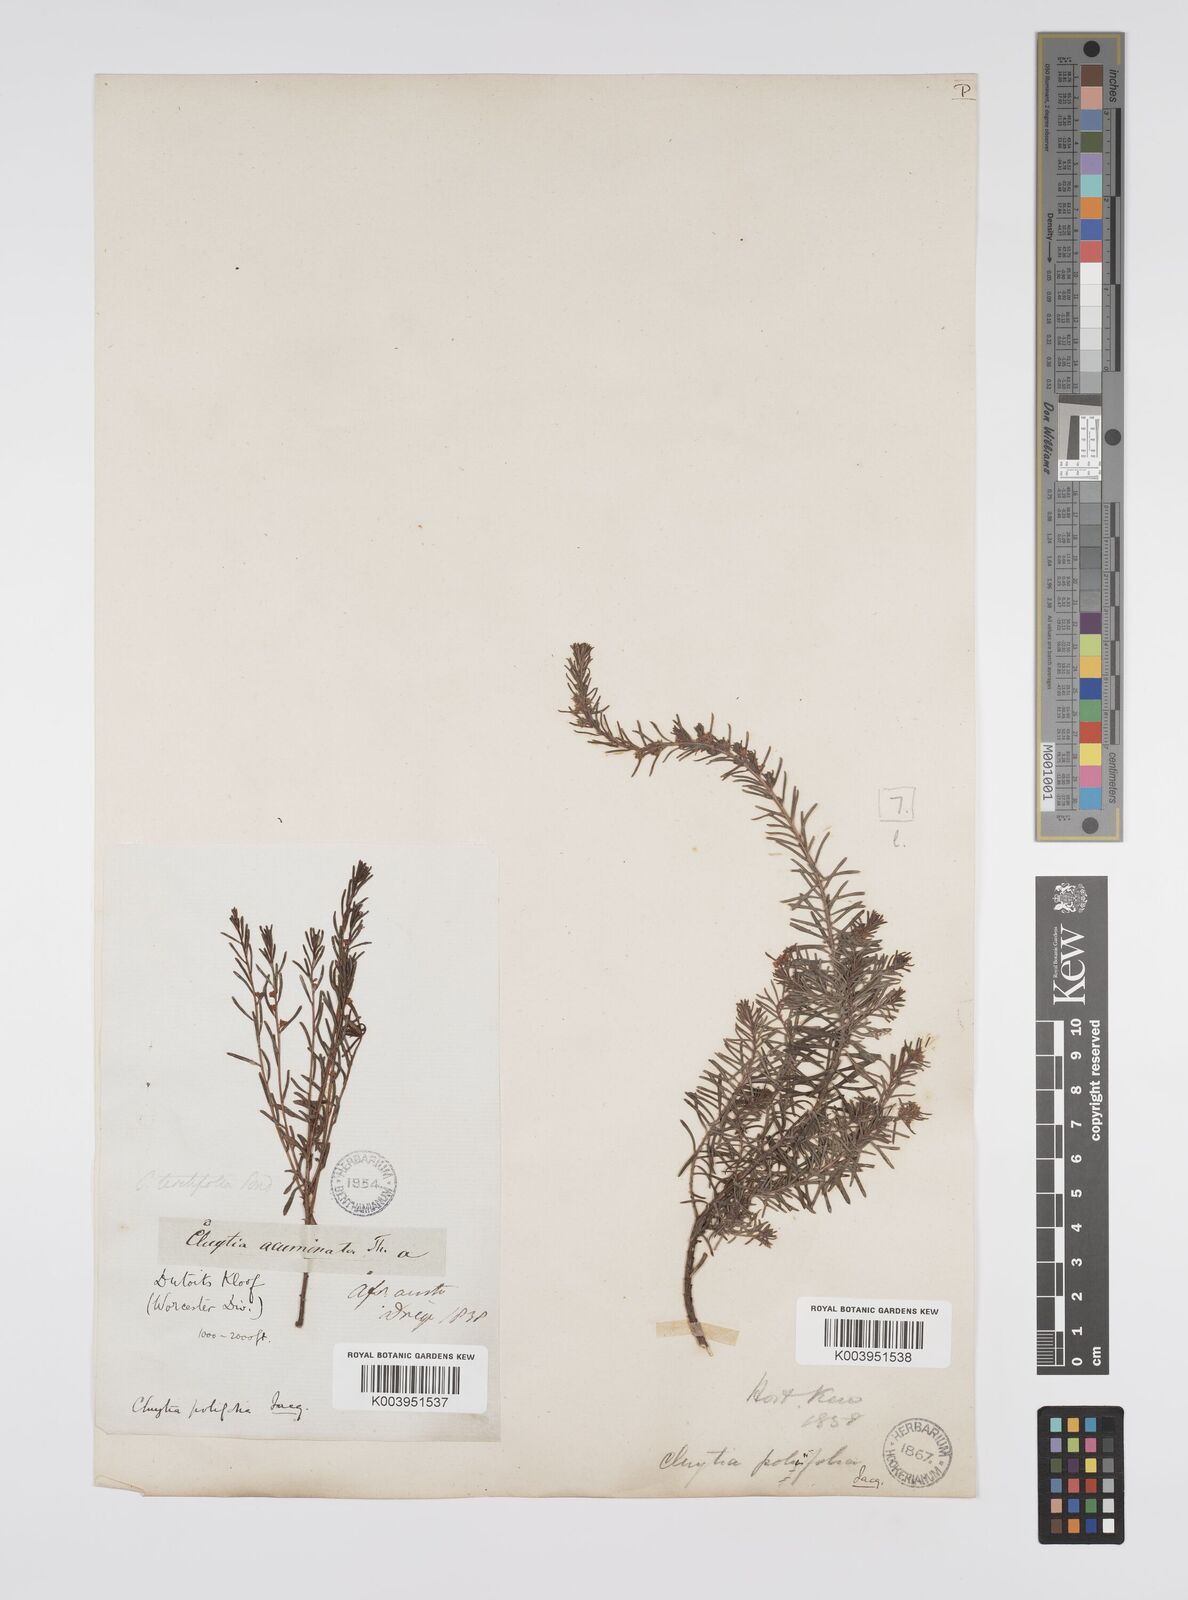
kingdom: Plantae
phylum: Tracheophyta
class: Magnoliopsida
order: Malpighiales
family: Peraceae
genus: Clutia
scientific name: Clutia
